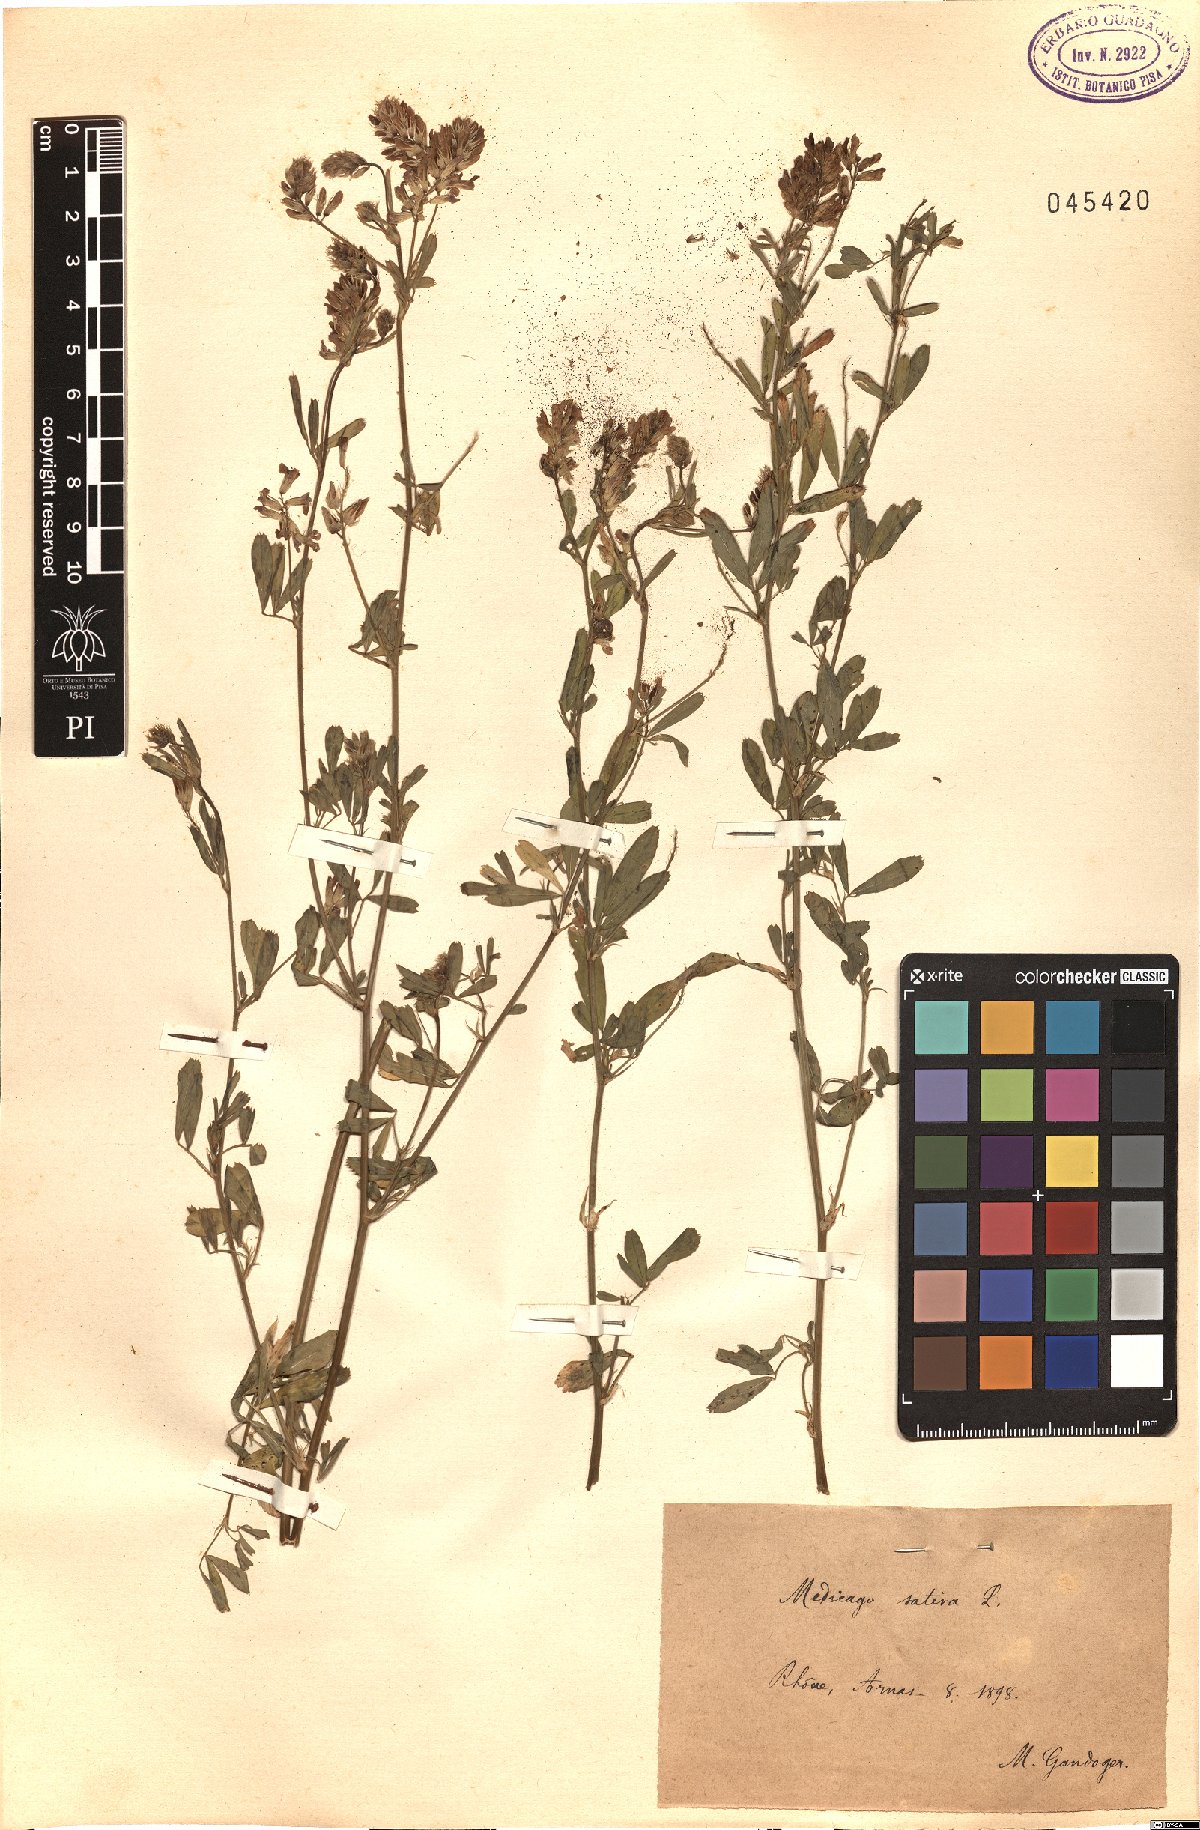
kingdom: Plantae
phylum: Tracheophyta
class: Magnoliopsida
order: Fabales
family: Fabaceae
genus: Medicago
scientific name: Medicago sativa
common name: Alfalfa
